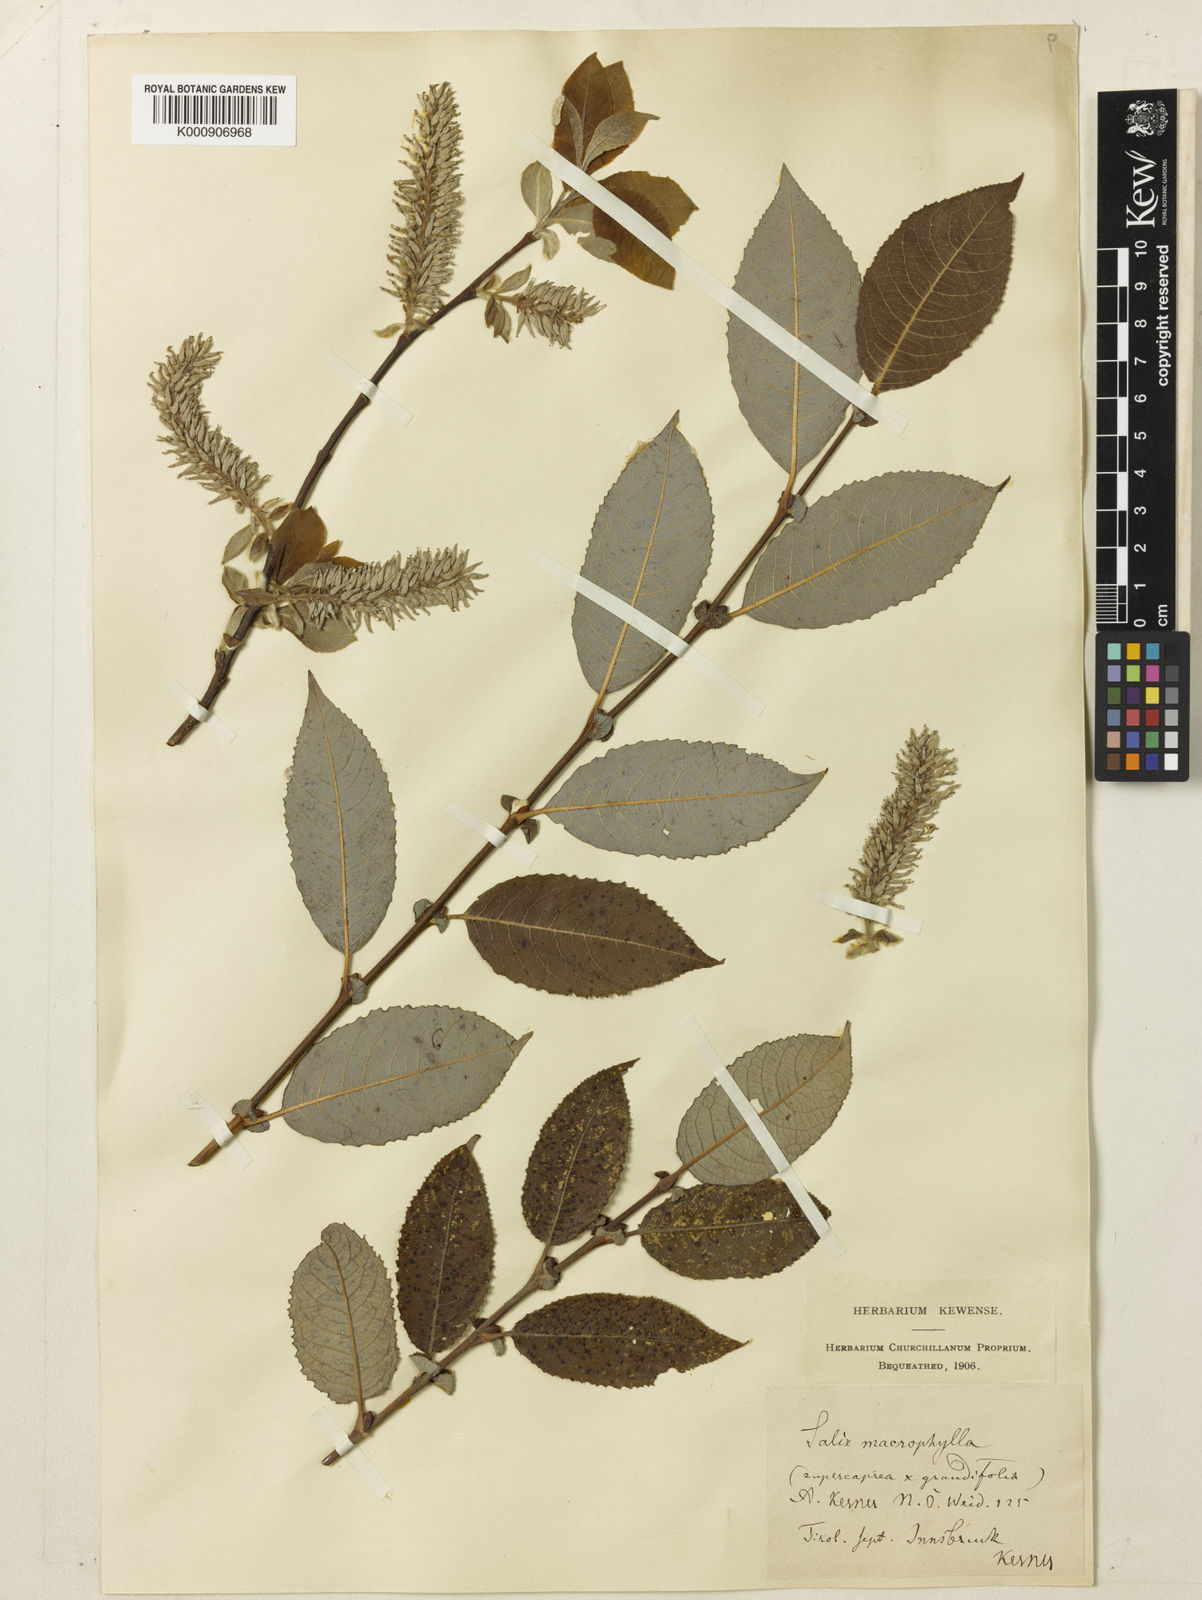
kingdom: Plantae
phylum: Tracheophyta
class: Magnoliopsida
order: Malpighiales
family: Salicaceae
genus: Salix
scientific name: Salix appendiculata
